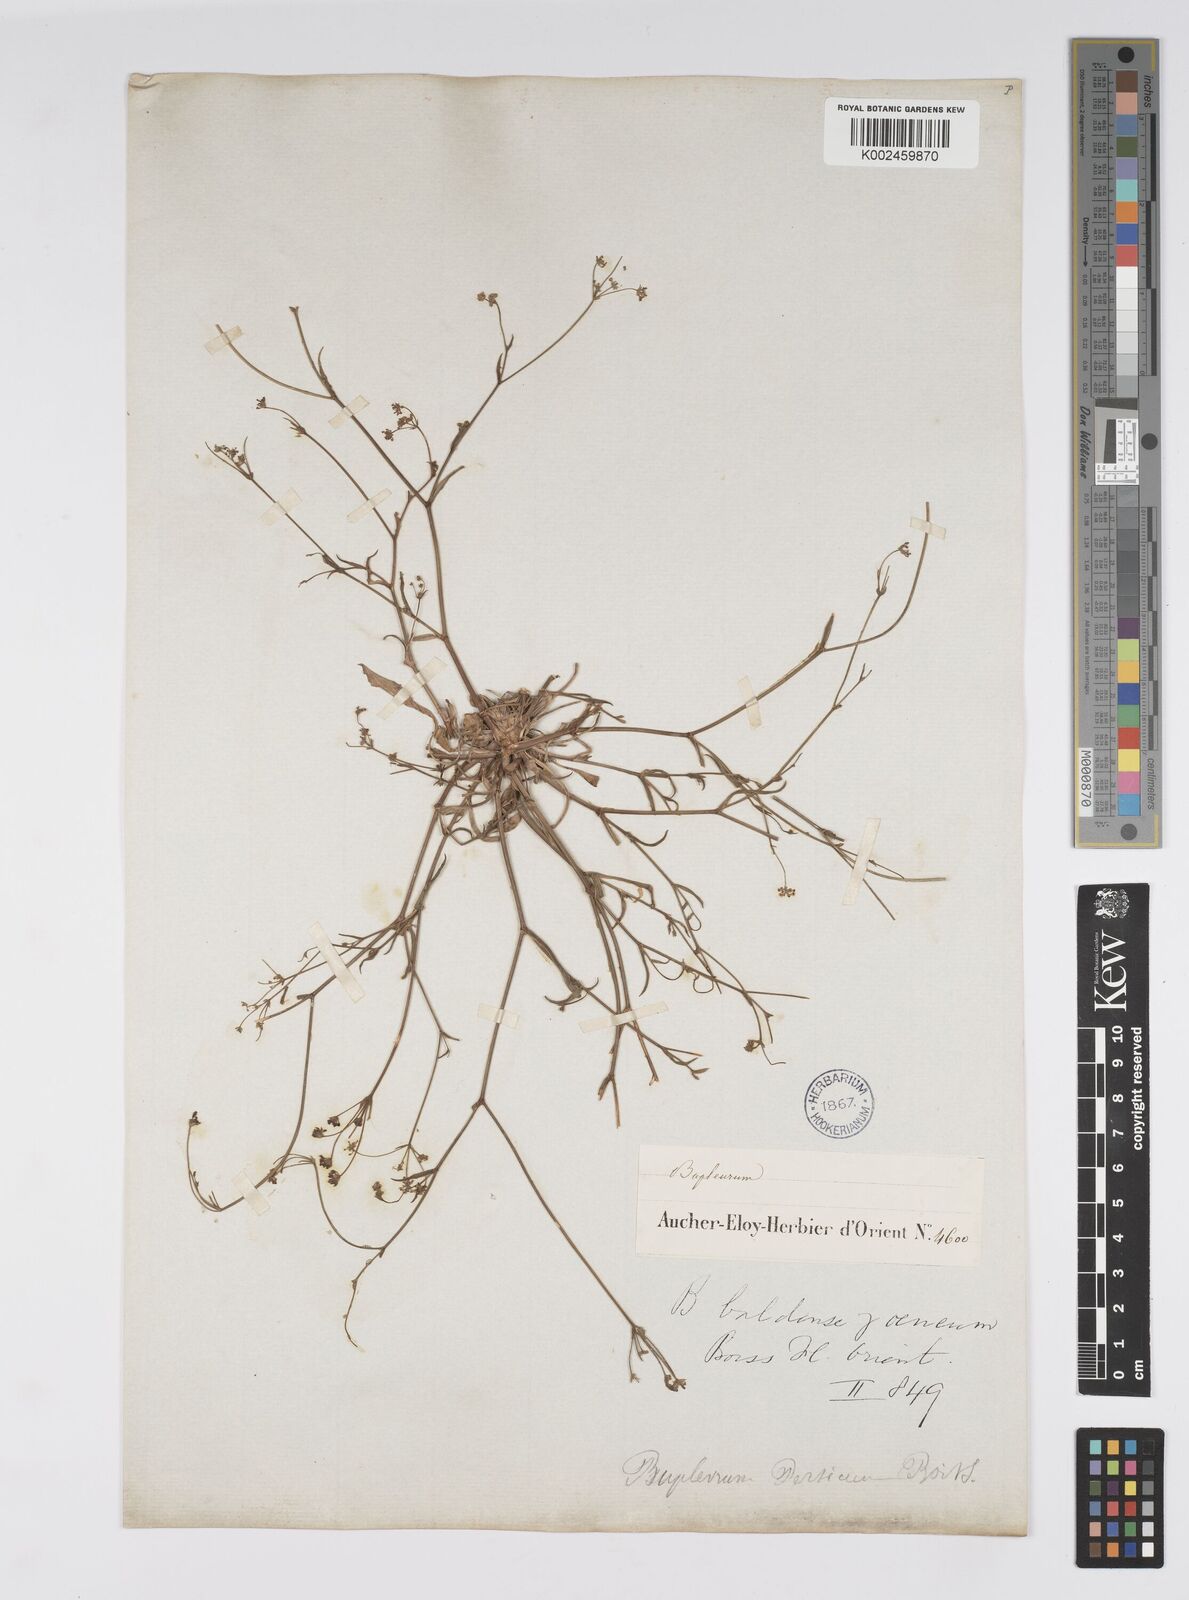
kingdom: Plantae
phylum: Tracheophyta
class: Magnoliopsida
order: Apiales
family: Apiaceae
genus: Bupleurum
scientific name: Bupleurum falcatum
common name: Sickle-leaved hare's-ear
